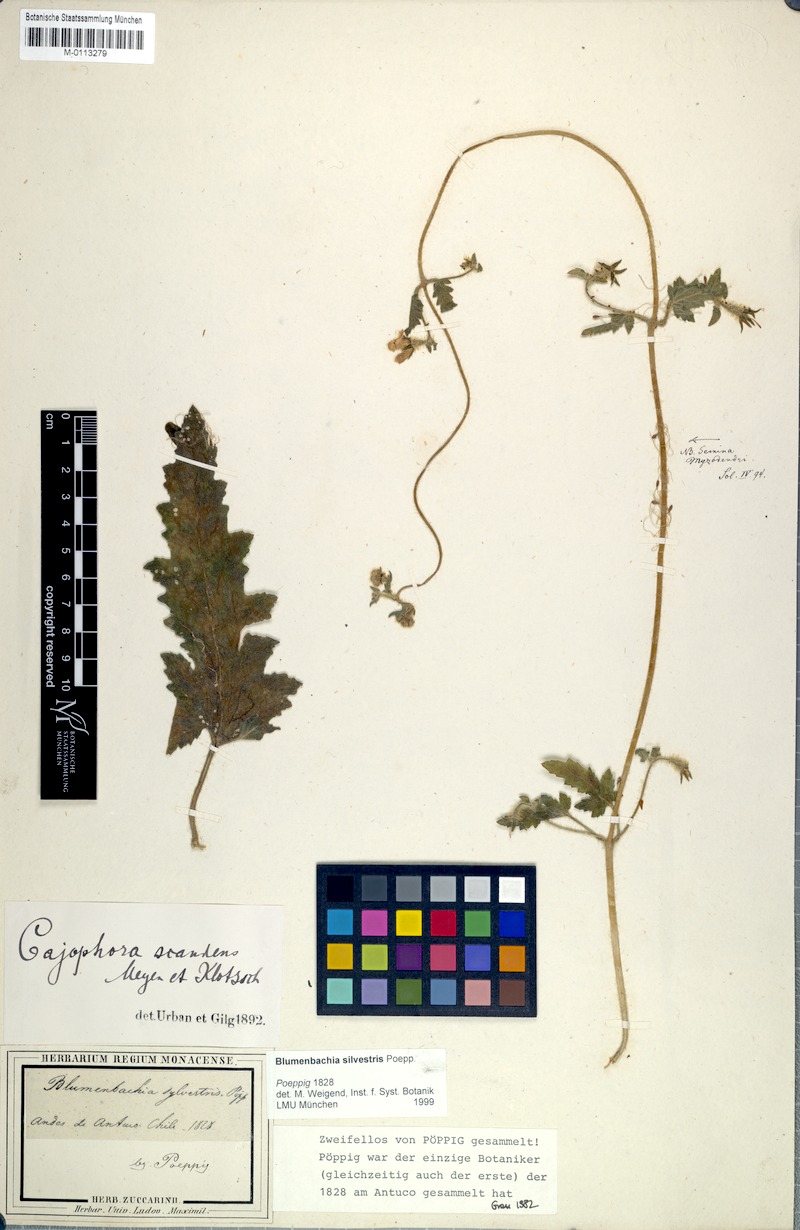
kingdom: Plantae
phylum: Tracheophyta
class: Magnoliopsida
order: Cornales
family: Loasaceae
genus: Blumenbachia
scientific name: Blumenbachia sylvestris
